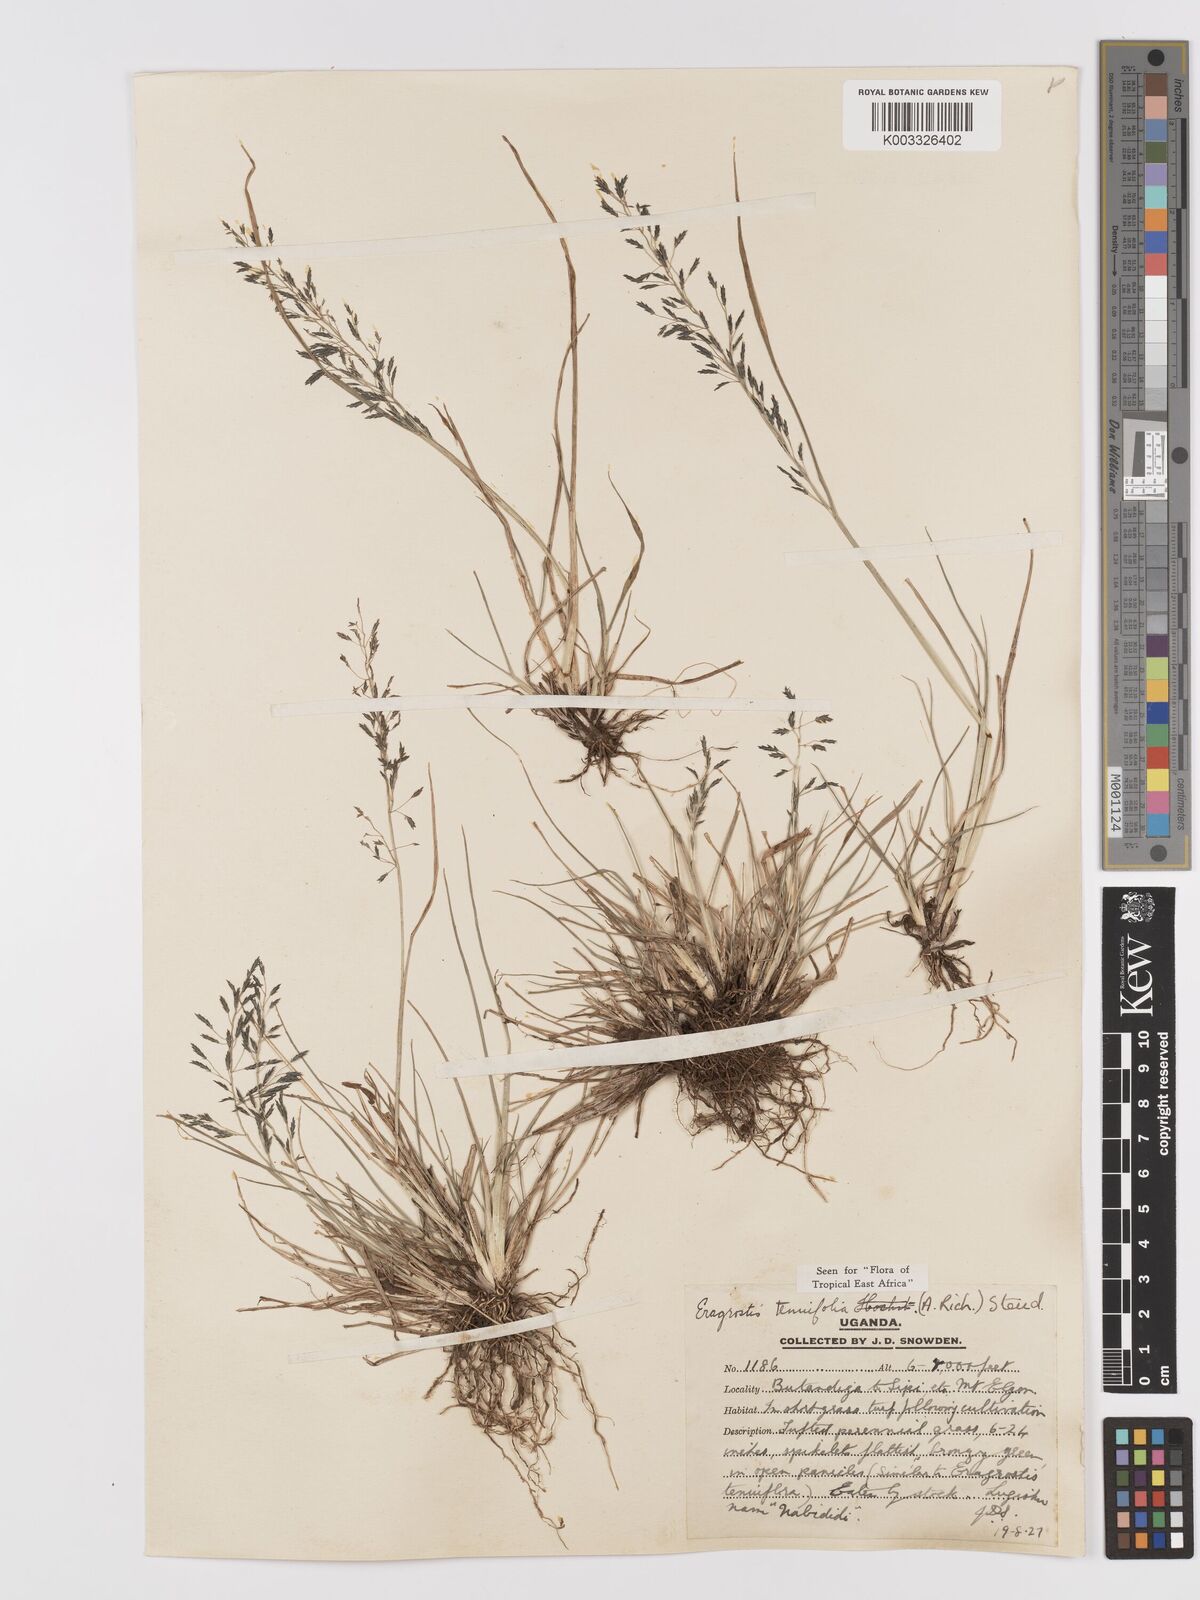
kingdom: Plantae
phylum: Tracheophyta
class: Liliopsida
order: Poales
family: Poaceae
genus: Eragrostis
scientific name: Eragrostis tenuifolia
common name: Elastic grass
